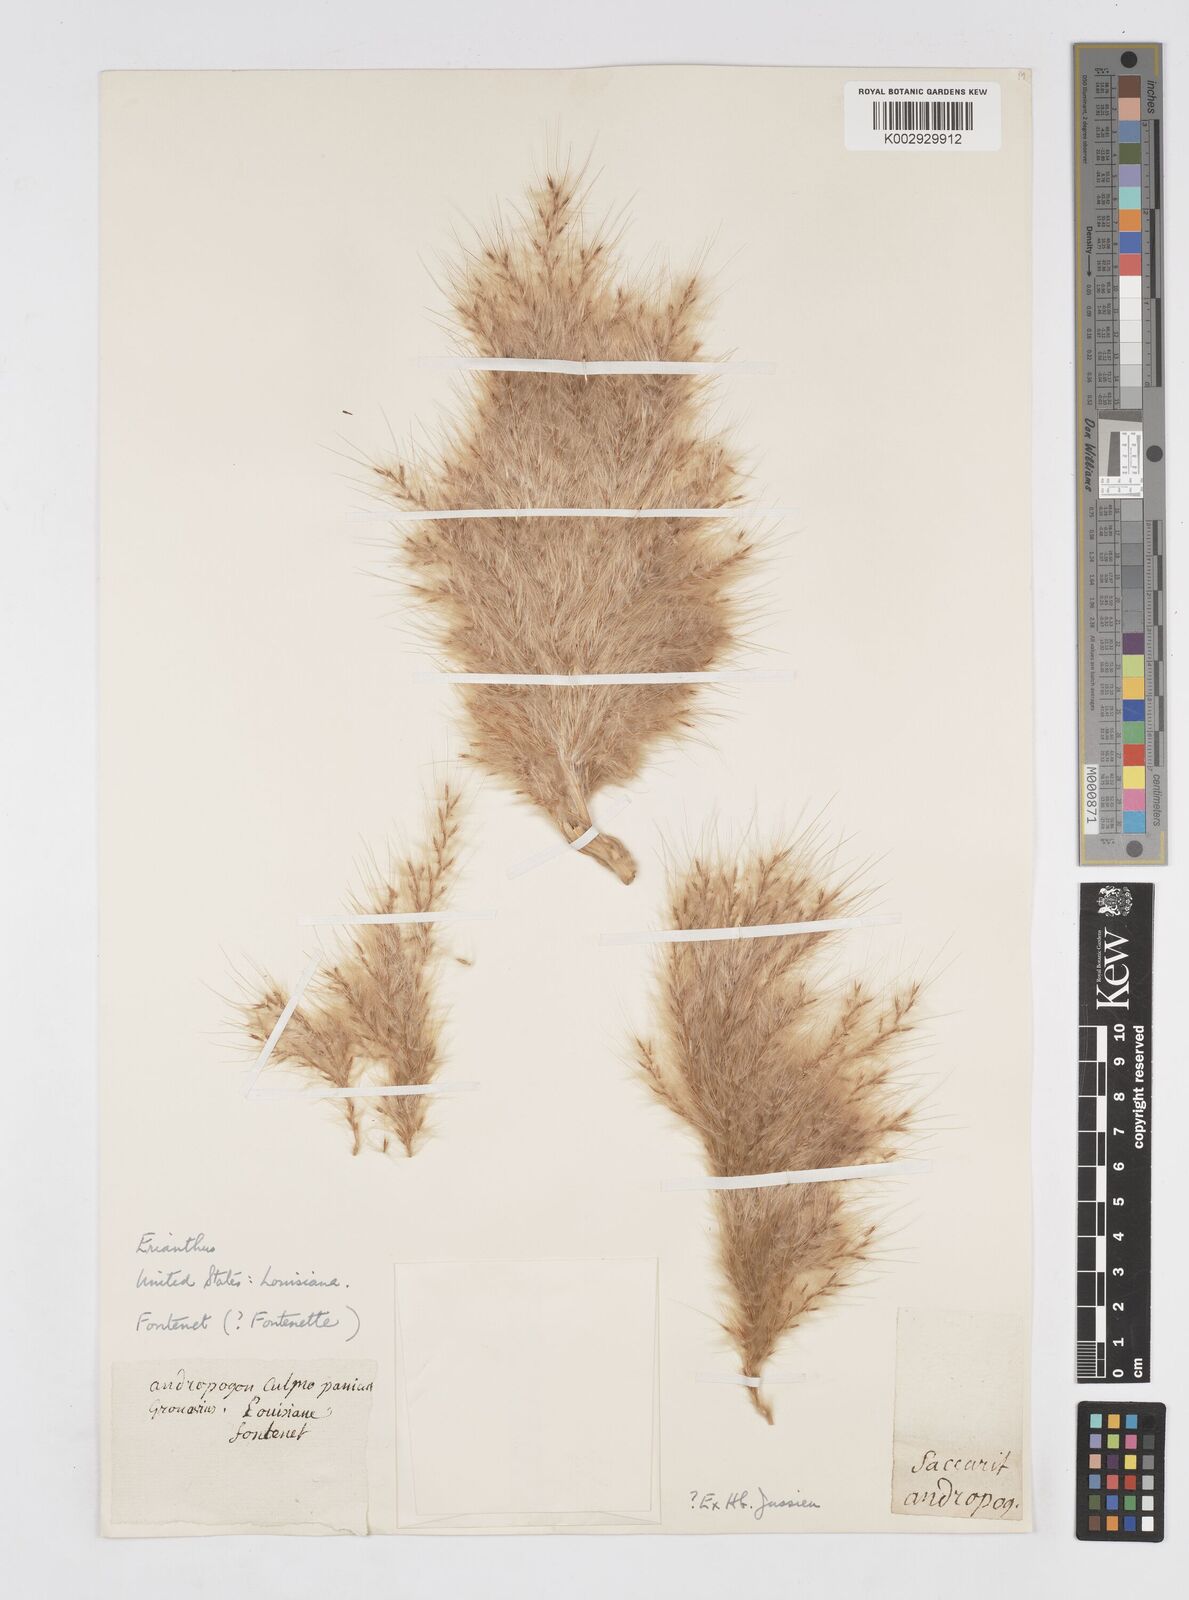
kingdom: Plantae
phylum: Tracheophyta
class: Liliopsida
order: Poales
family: Poaceae
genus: Saccharum
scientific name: Saccharum
